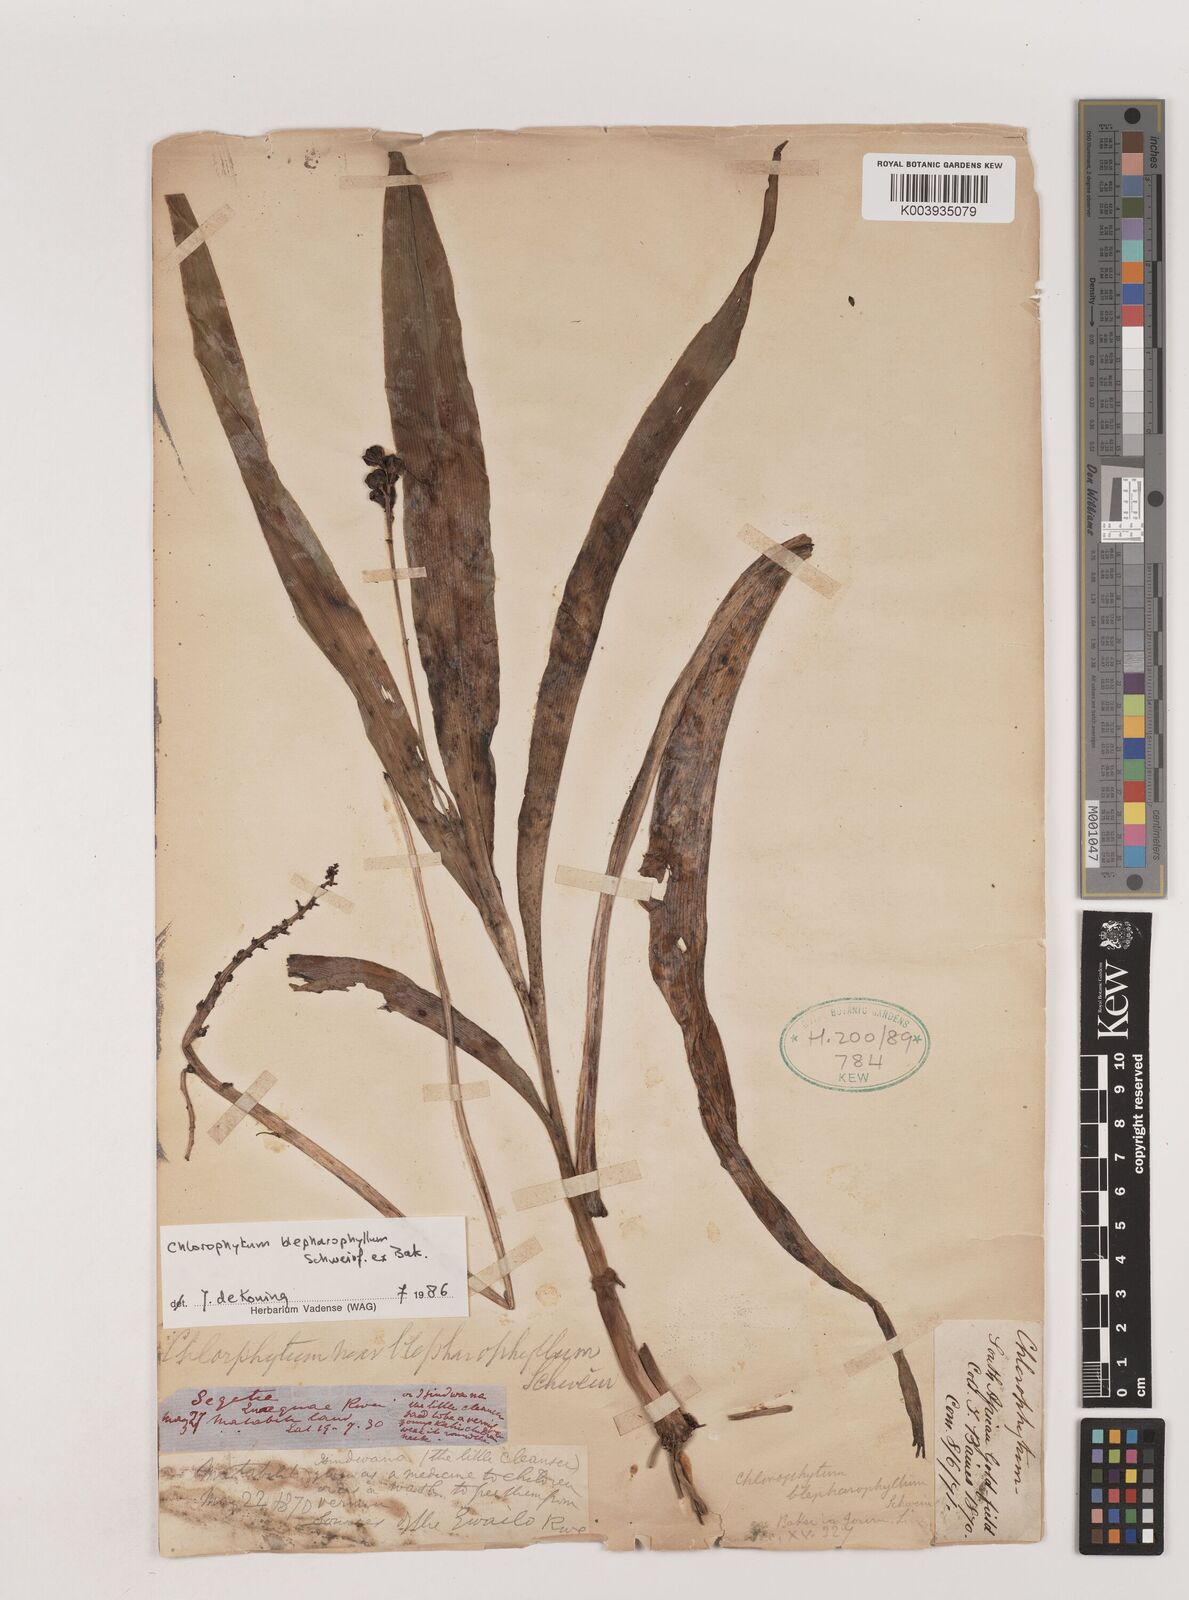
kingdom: Plantae
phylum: Tracheophyta
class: Liliopsida
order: Asparagales
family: Asparagaceae
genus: Chlorophytum
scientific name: Chlorophytum blepharophyllum
